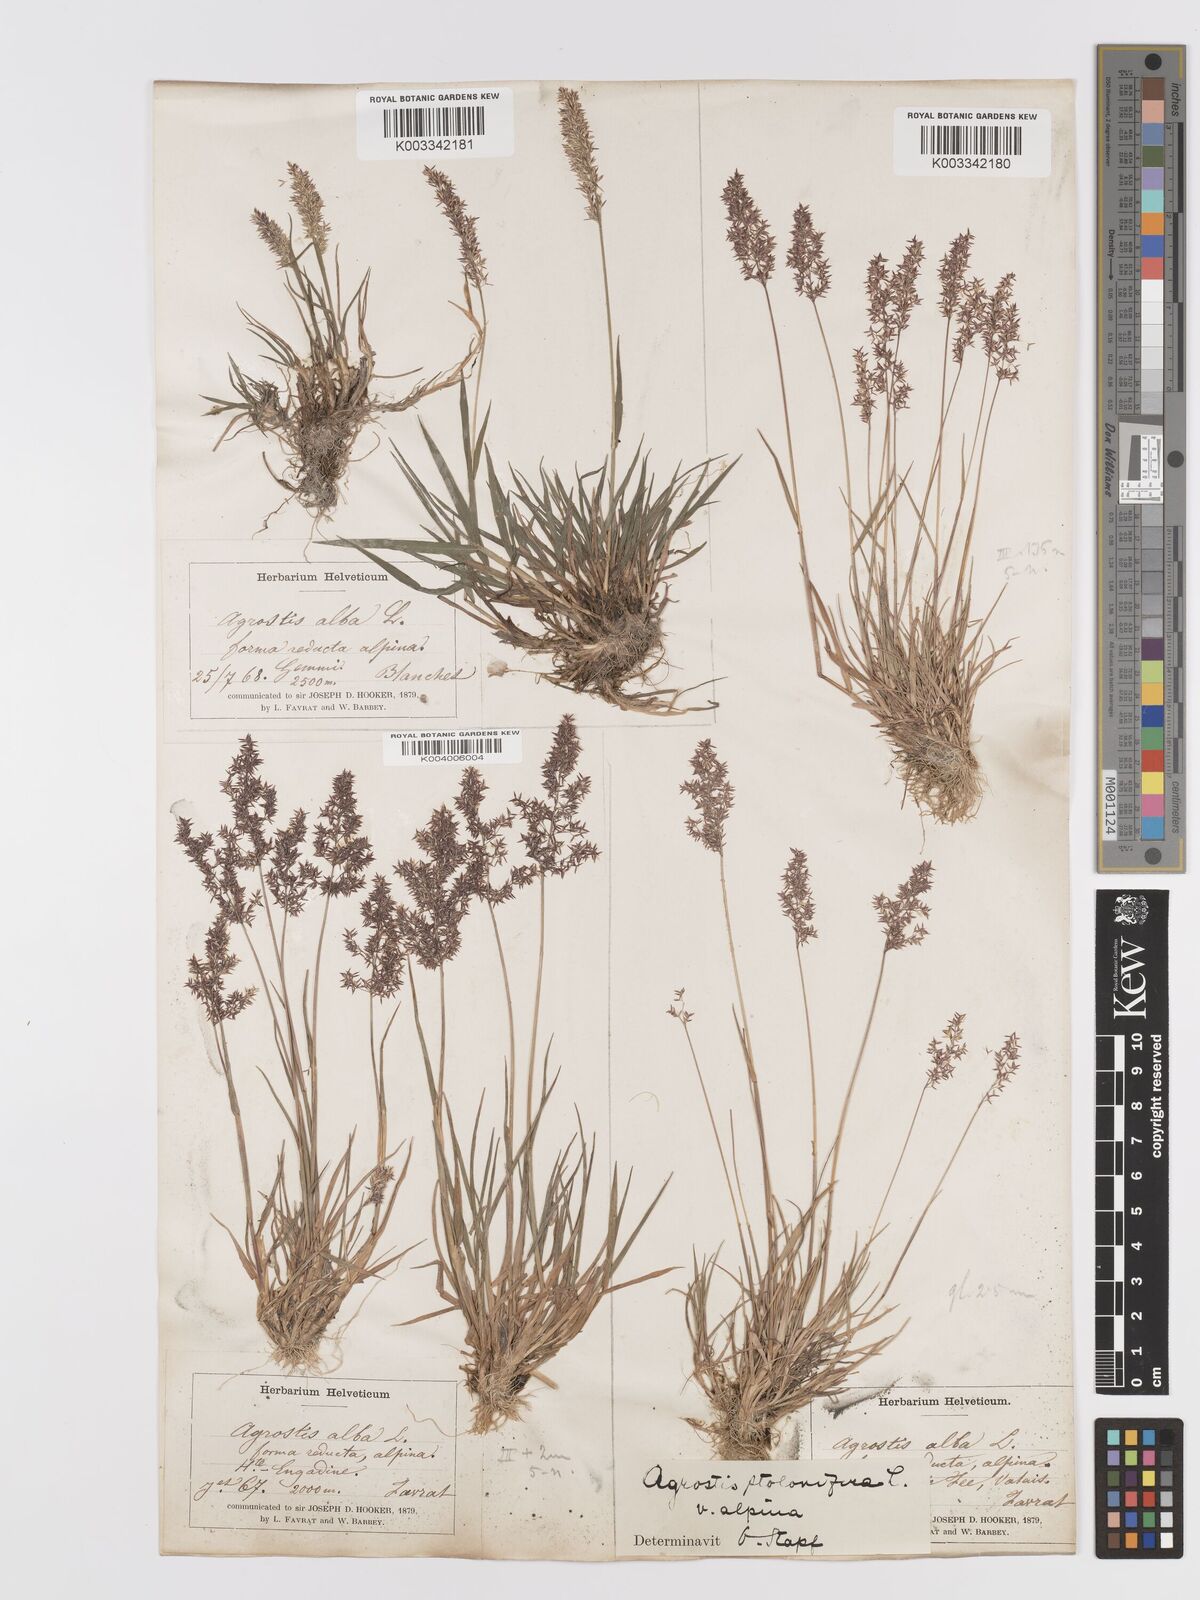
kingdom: Plantae
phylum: Tracheophyta
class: Liliopsida
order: Poales
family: Poaceae
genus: Agrostis
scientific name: Agrostis stolonifera
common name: Creeping bentgrass
